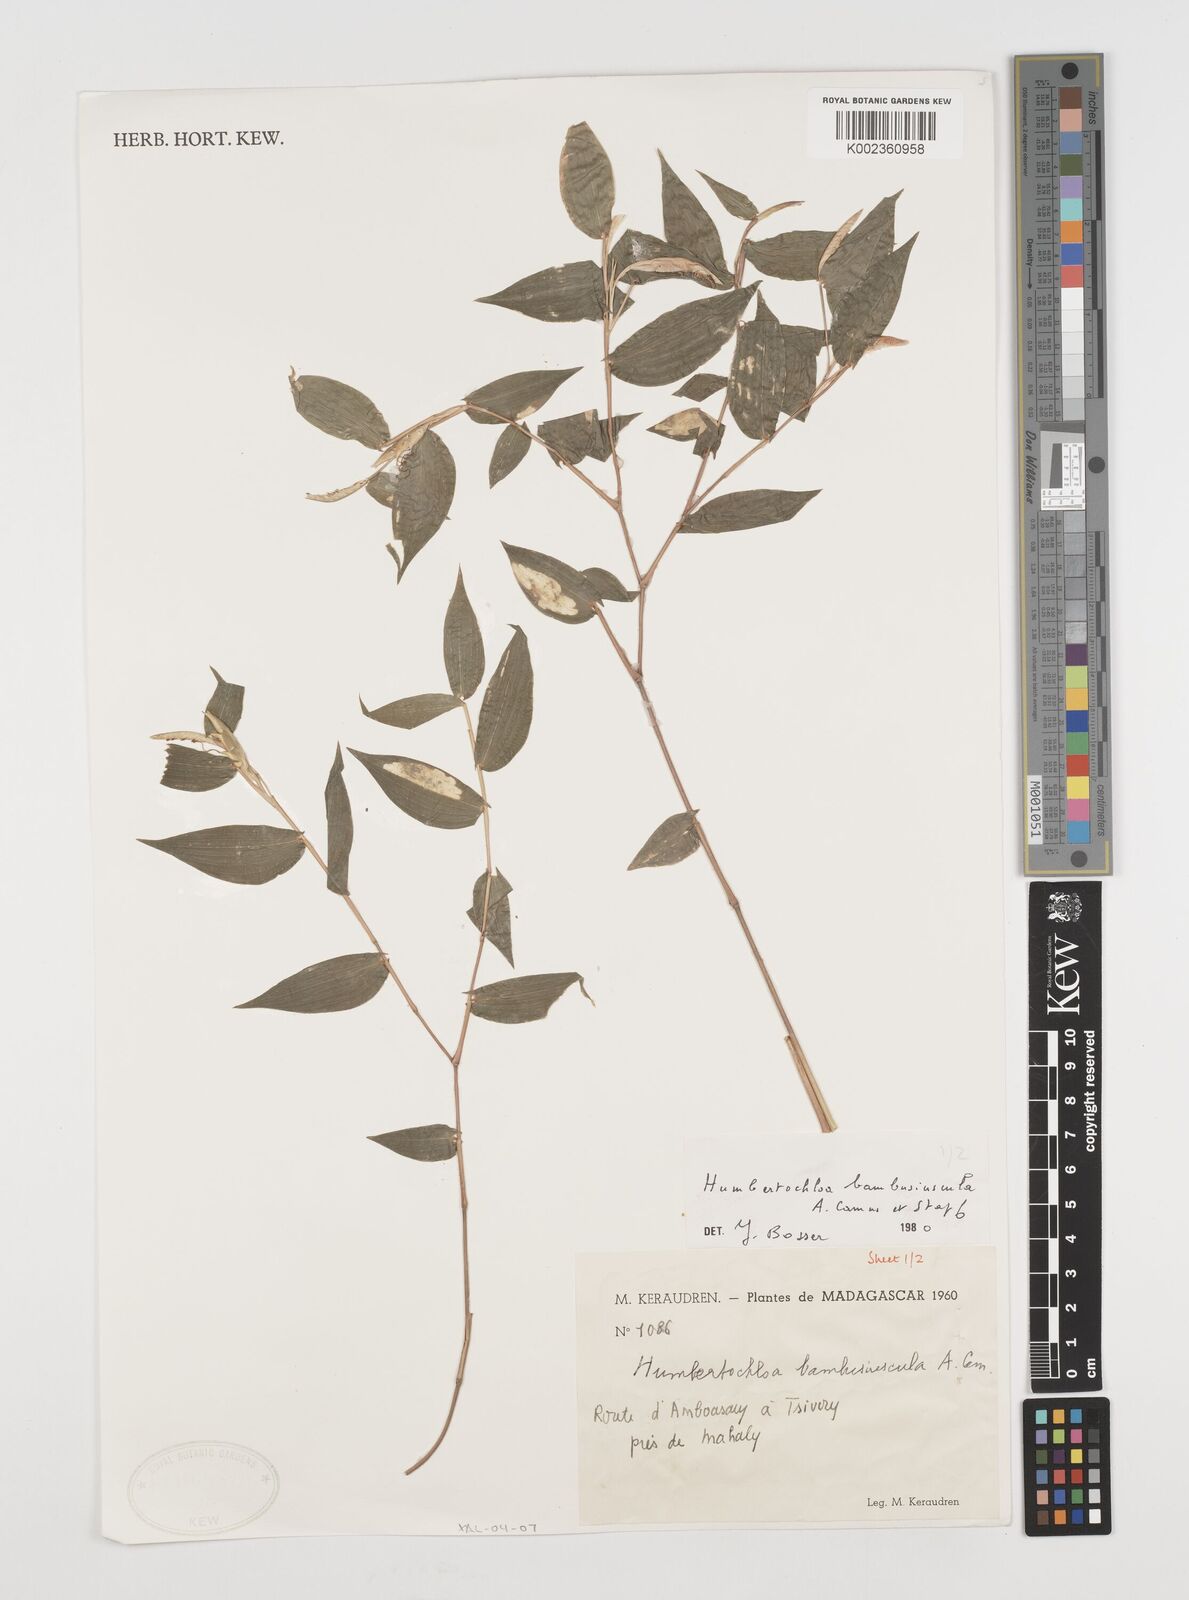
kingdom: Plantae
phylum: Tracheophyta
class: Liliopsida
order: Poales
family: Poaceae
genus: Humbertochloa
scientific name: Humbertochloa bambusiuscula
